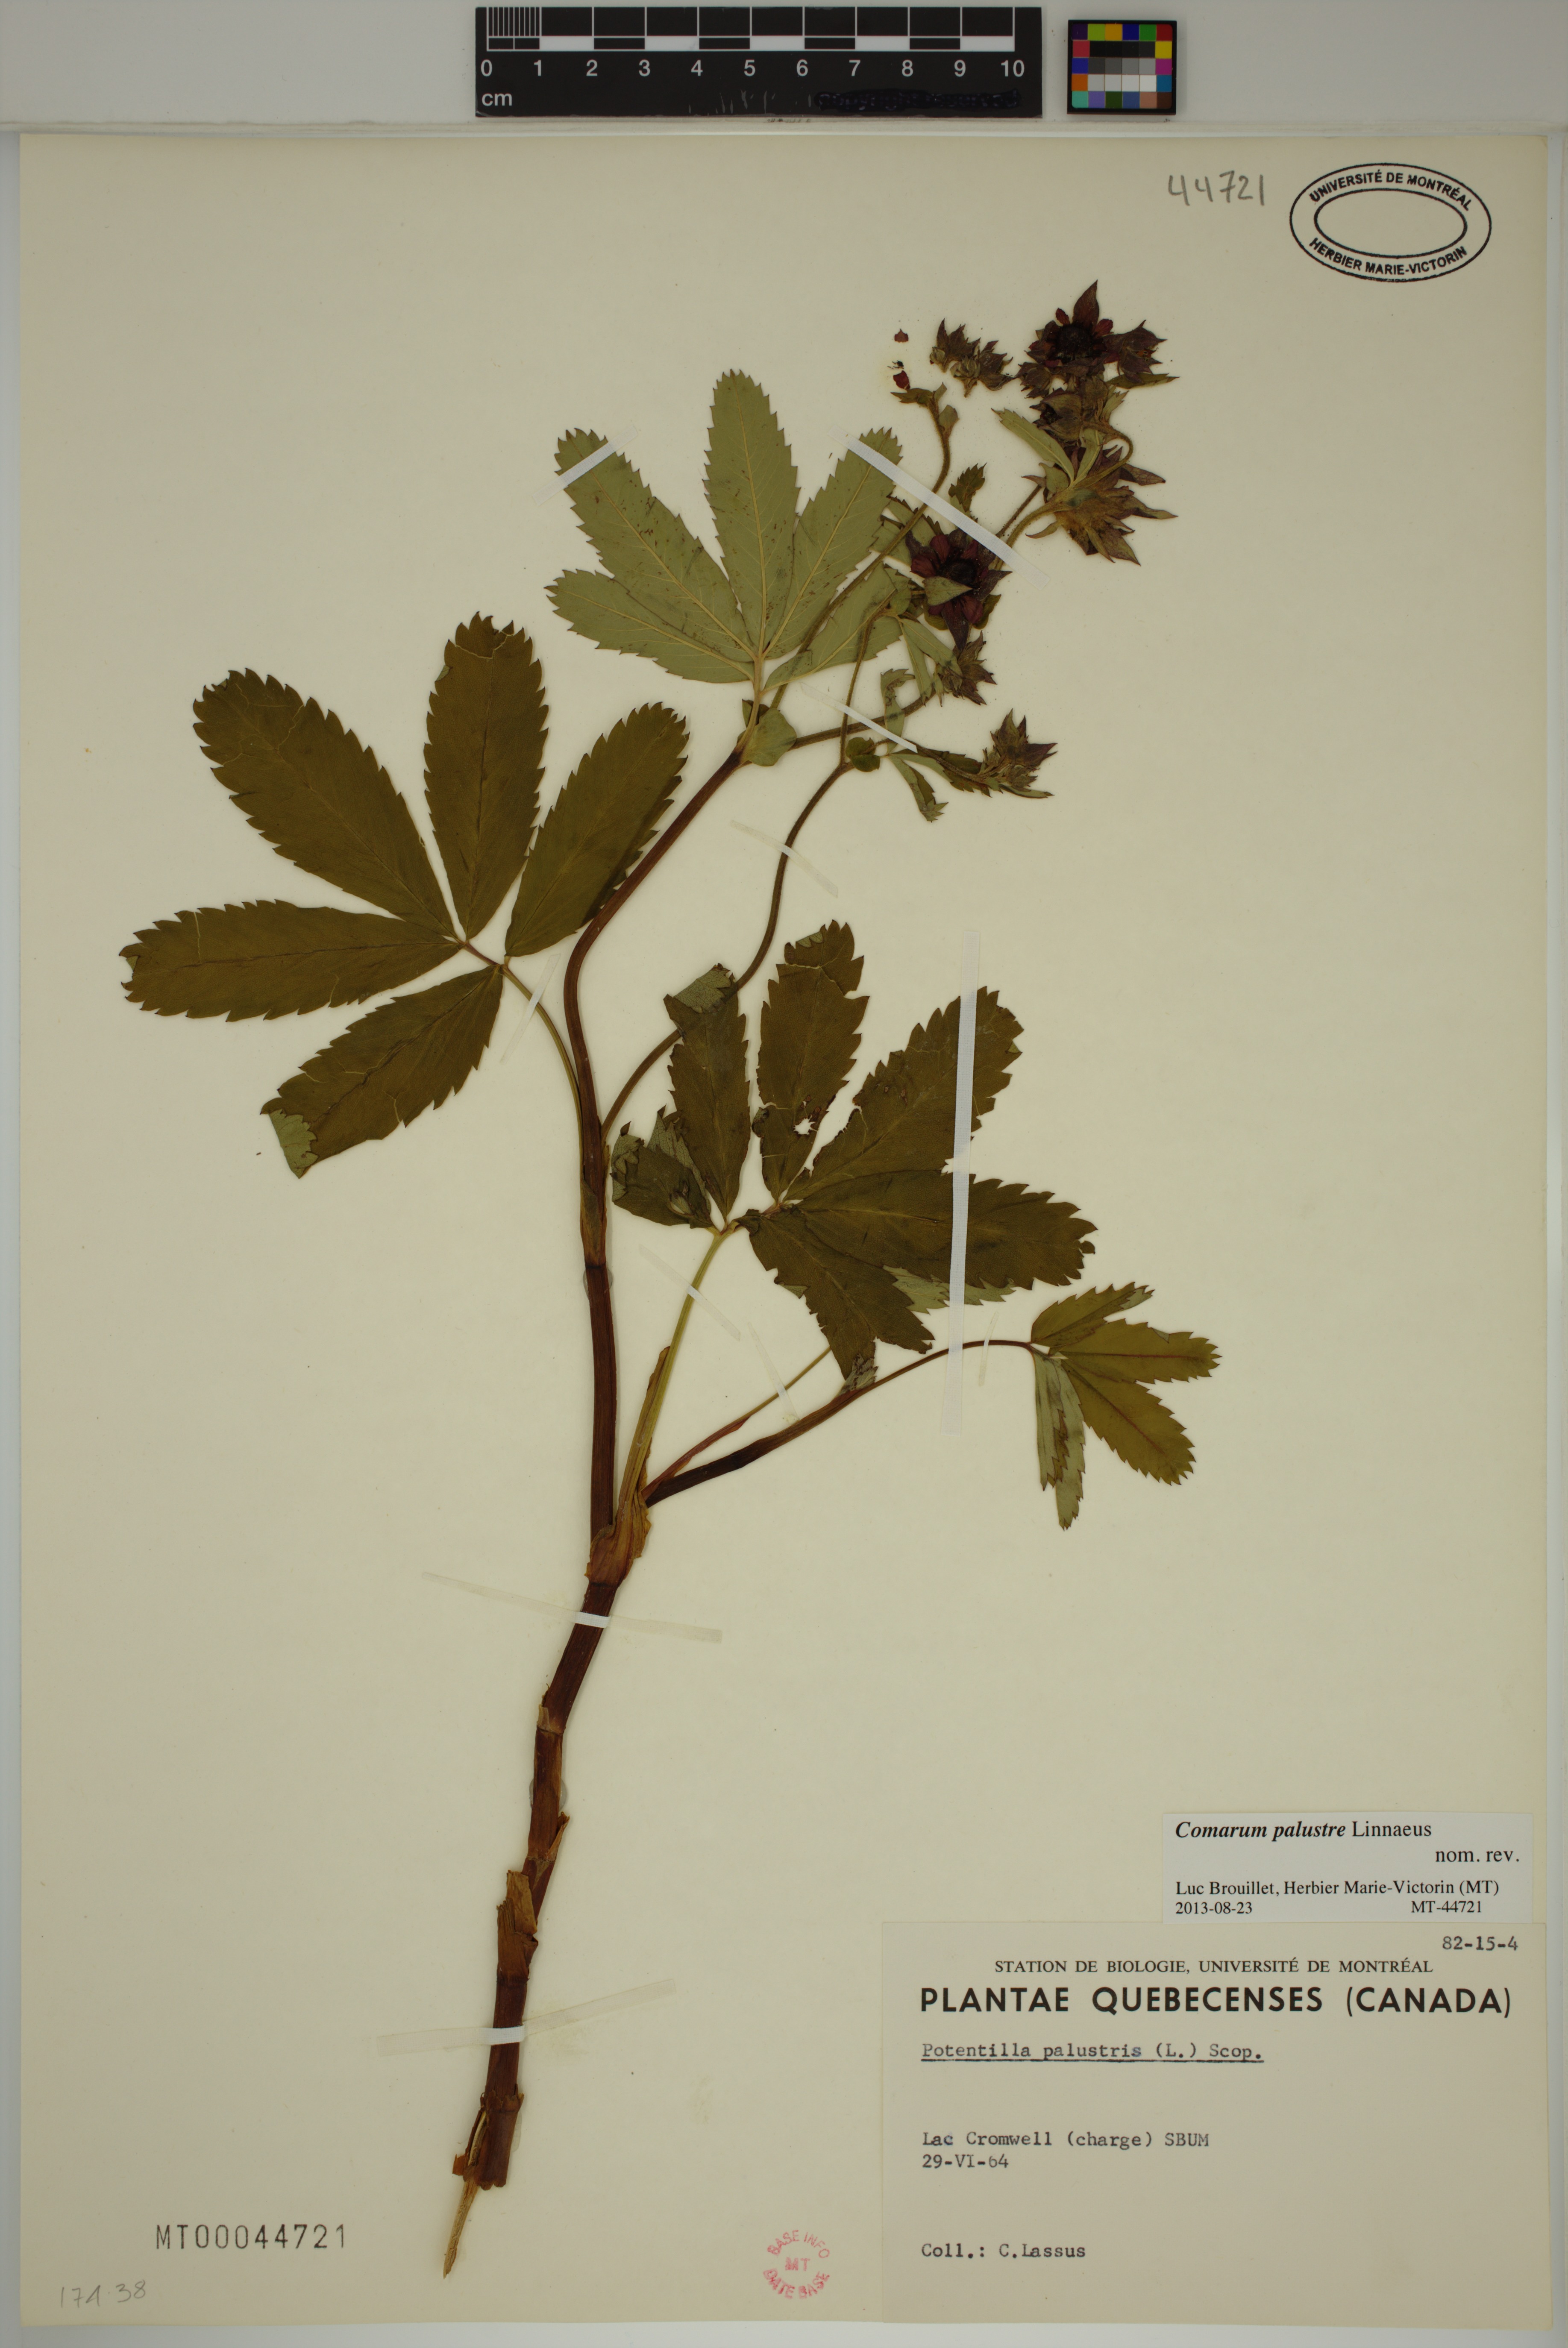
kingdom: Plantae
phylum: Tracheophyta
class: Magnoliopsida
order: Rosales
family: Rosaceae
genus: Comarum
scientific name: Comarum palustre
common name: Marsh cinquefoil
